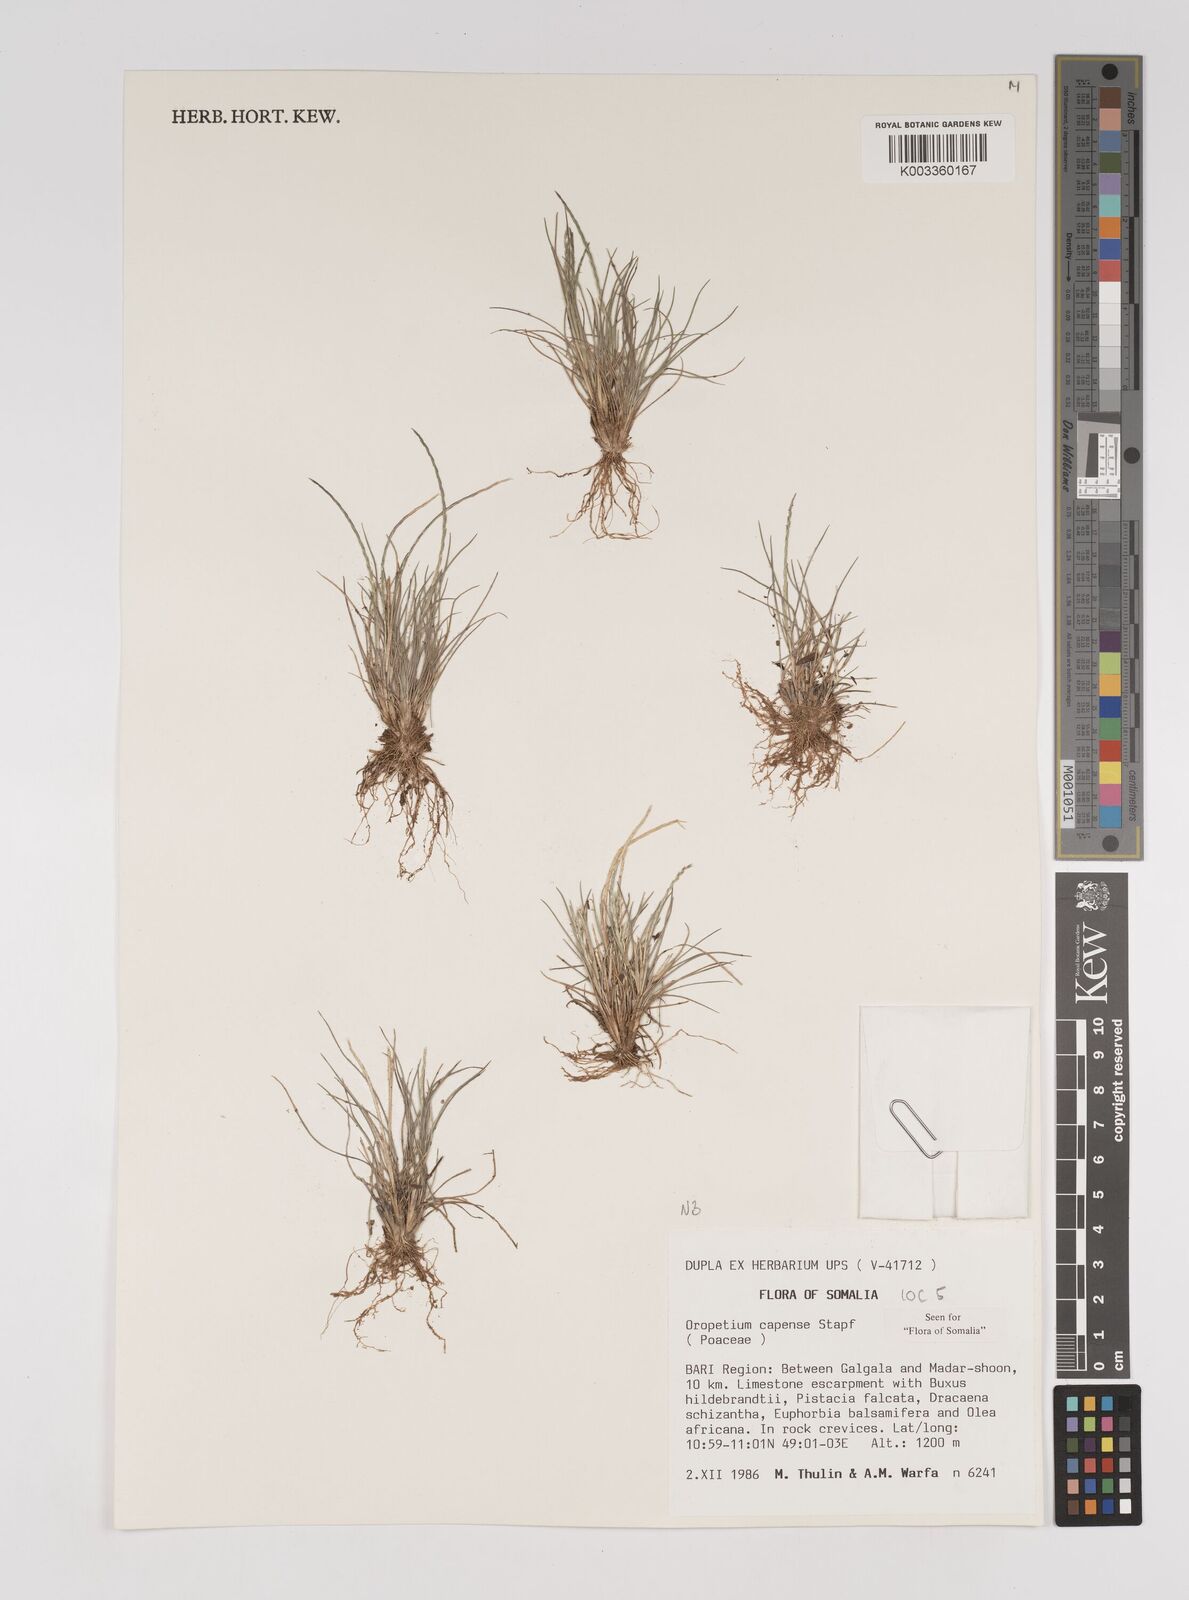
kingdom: Plantae
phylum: Tracheophyta
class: Liliopsida
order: Poales
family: Poaceae
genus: Oropetium
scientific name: Oropetium capense
